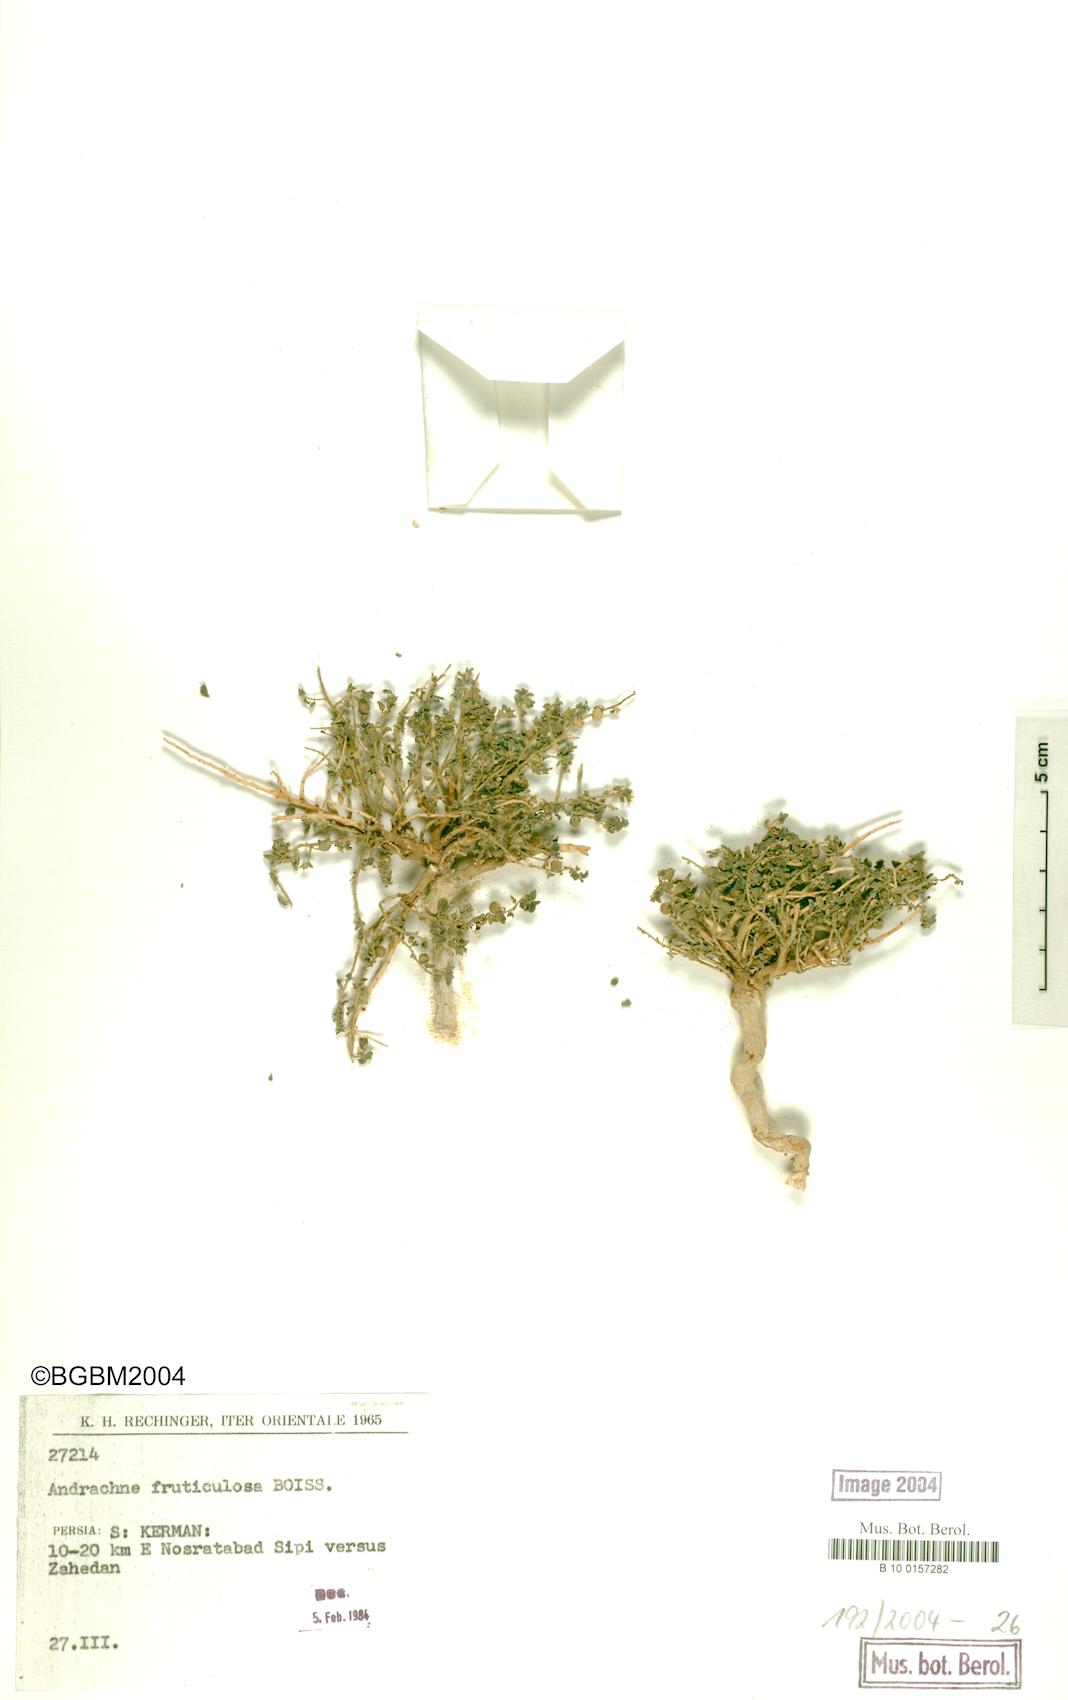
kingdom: Plantae
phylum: Tracheophyta
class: Magnoliopsida
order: Malpighiales
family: Phyllanthaceae
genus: Andrachne
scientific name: Andrachne fruticulosa
